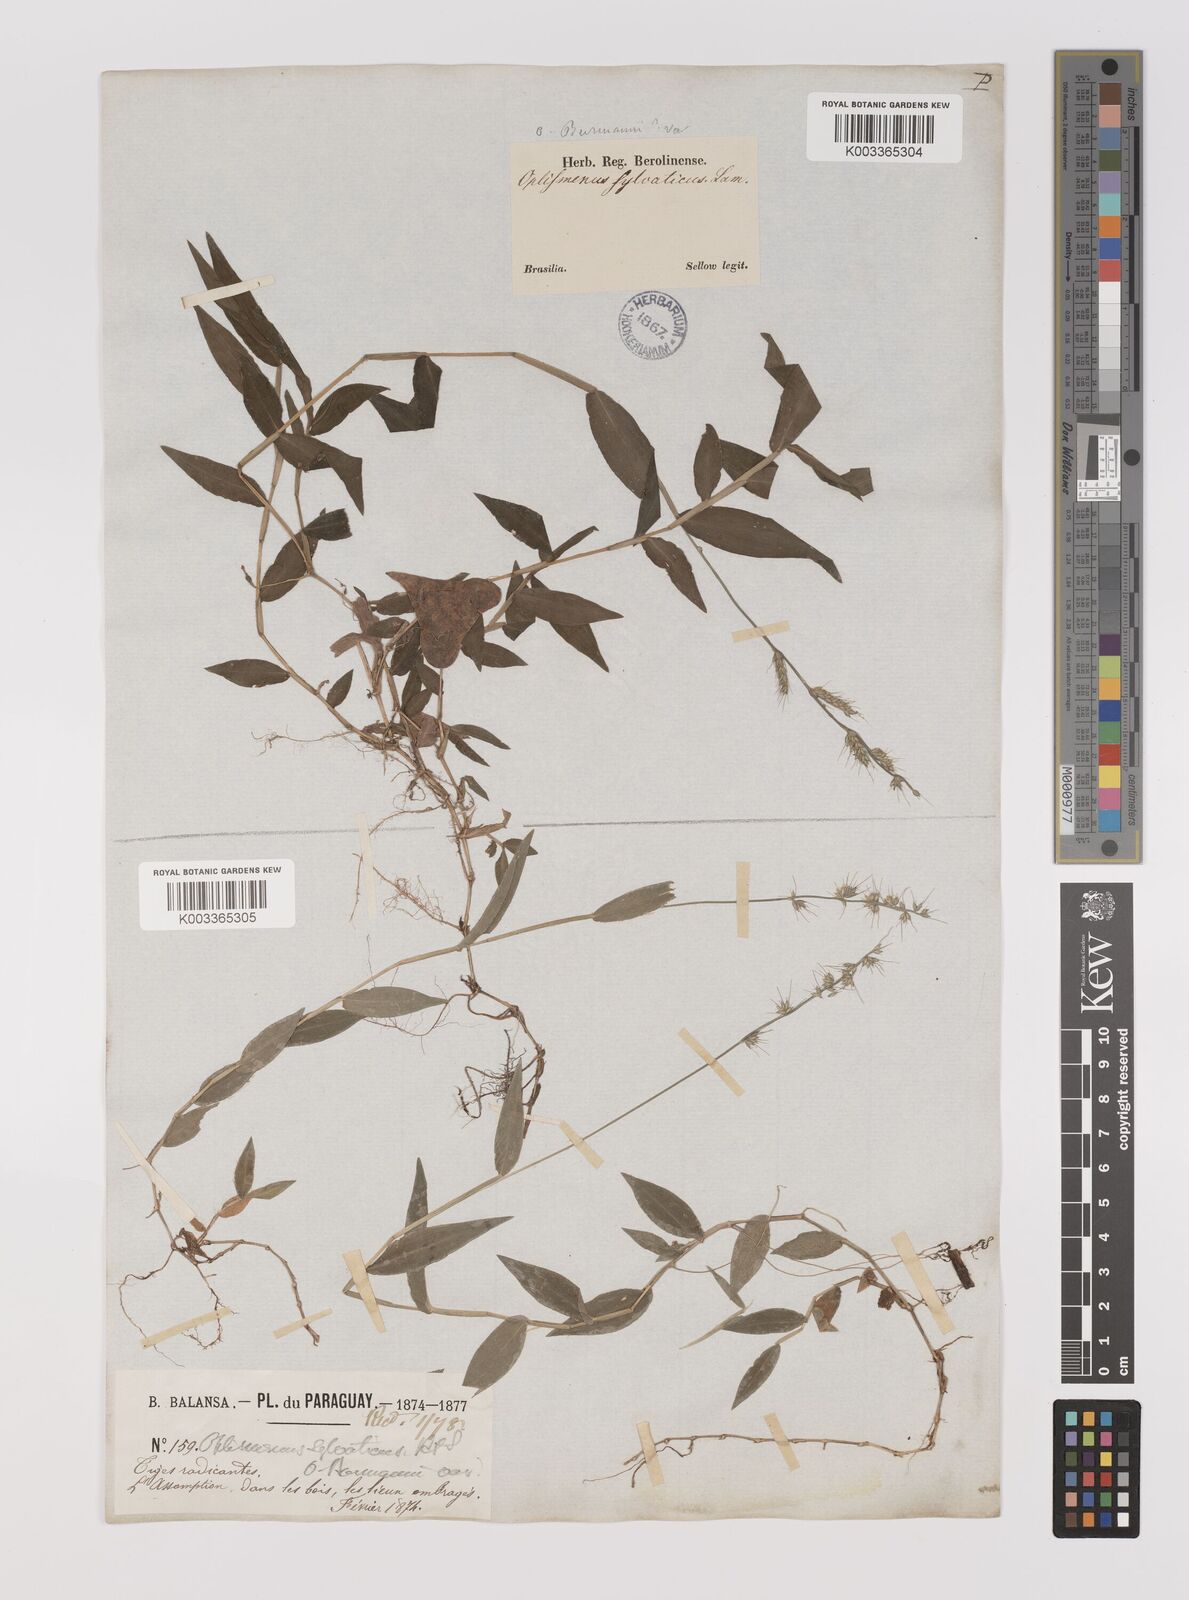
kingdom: Plantae
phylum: Tracheophyta
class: Liliopsida
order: Poales
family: Poaceae
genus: Oplismenus
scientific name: Oplismenus hirtellus
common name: Basketgrass
